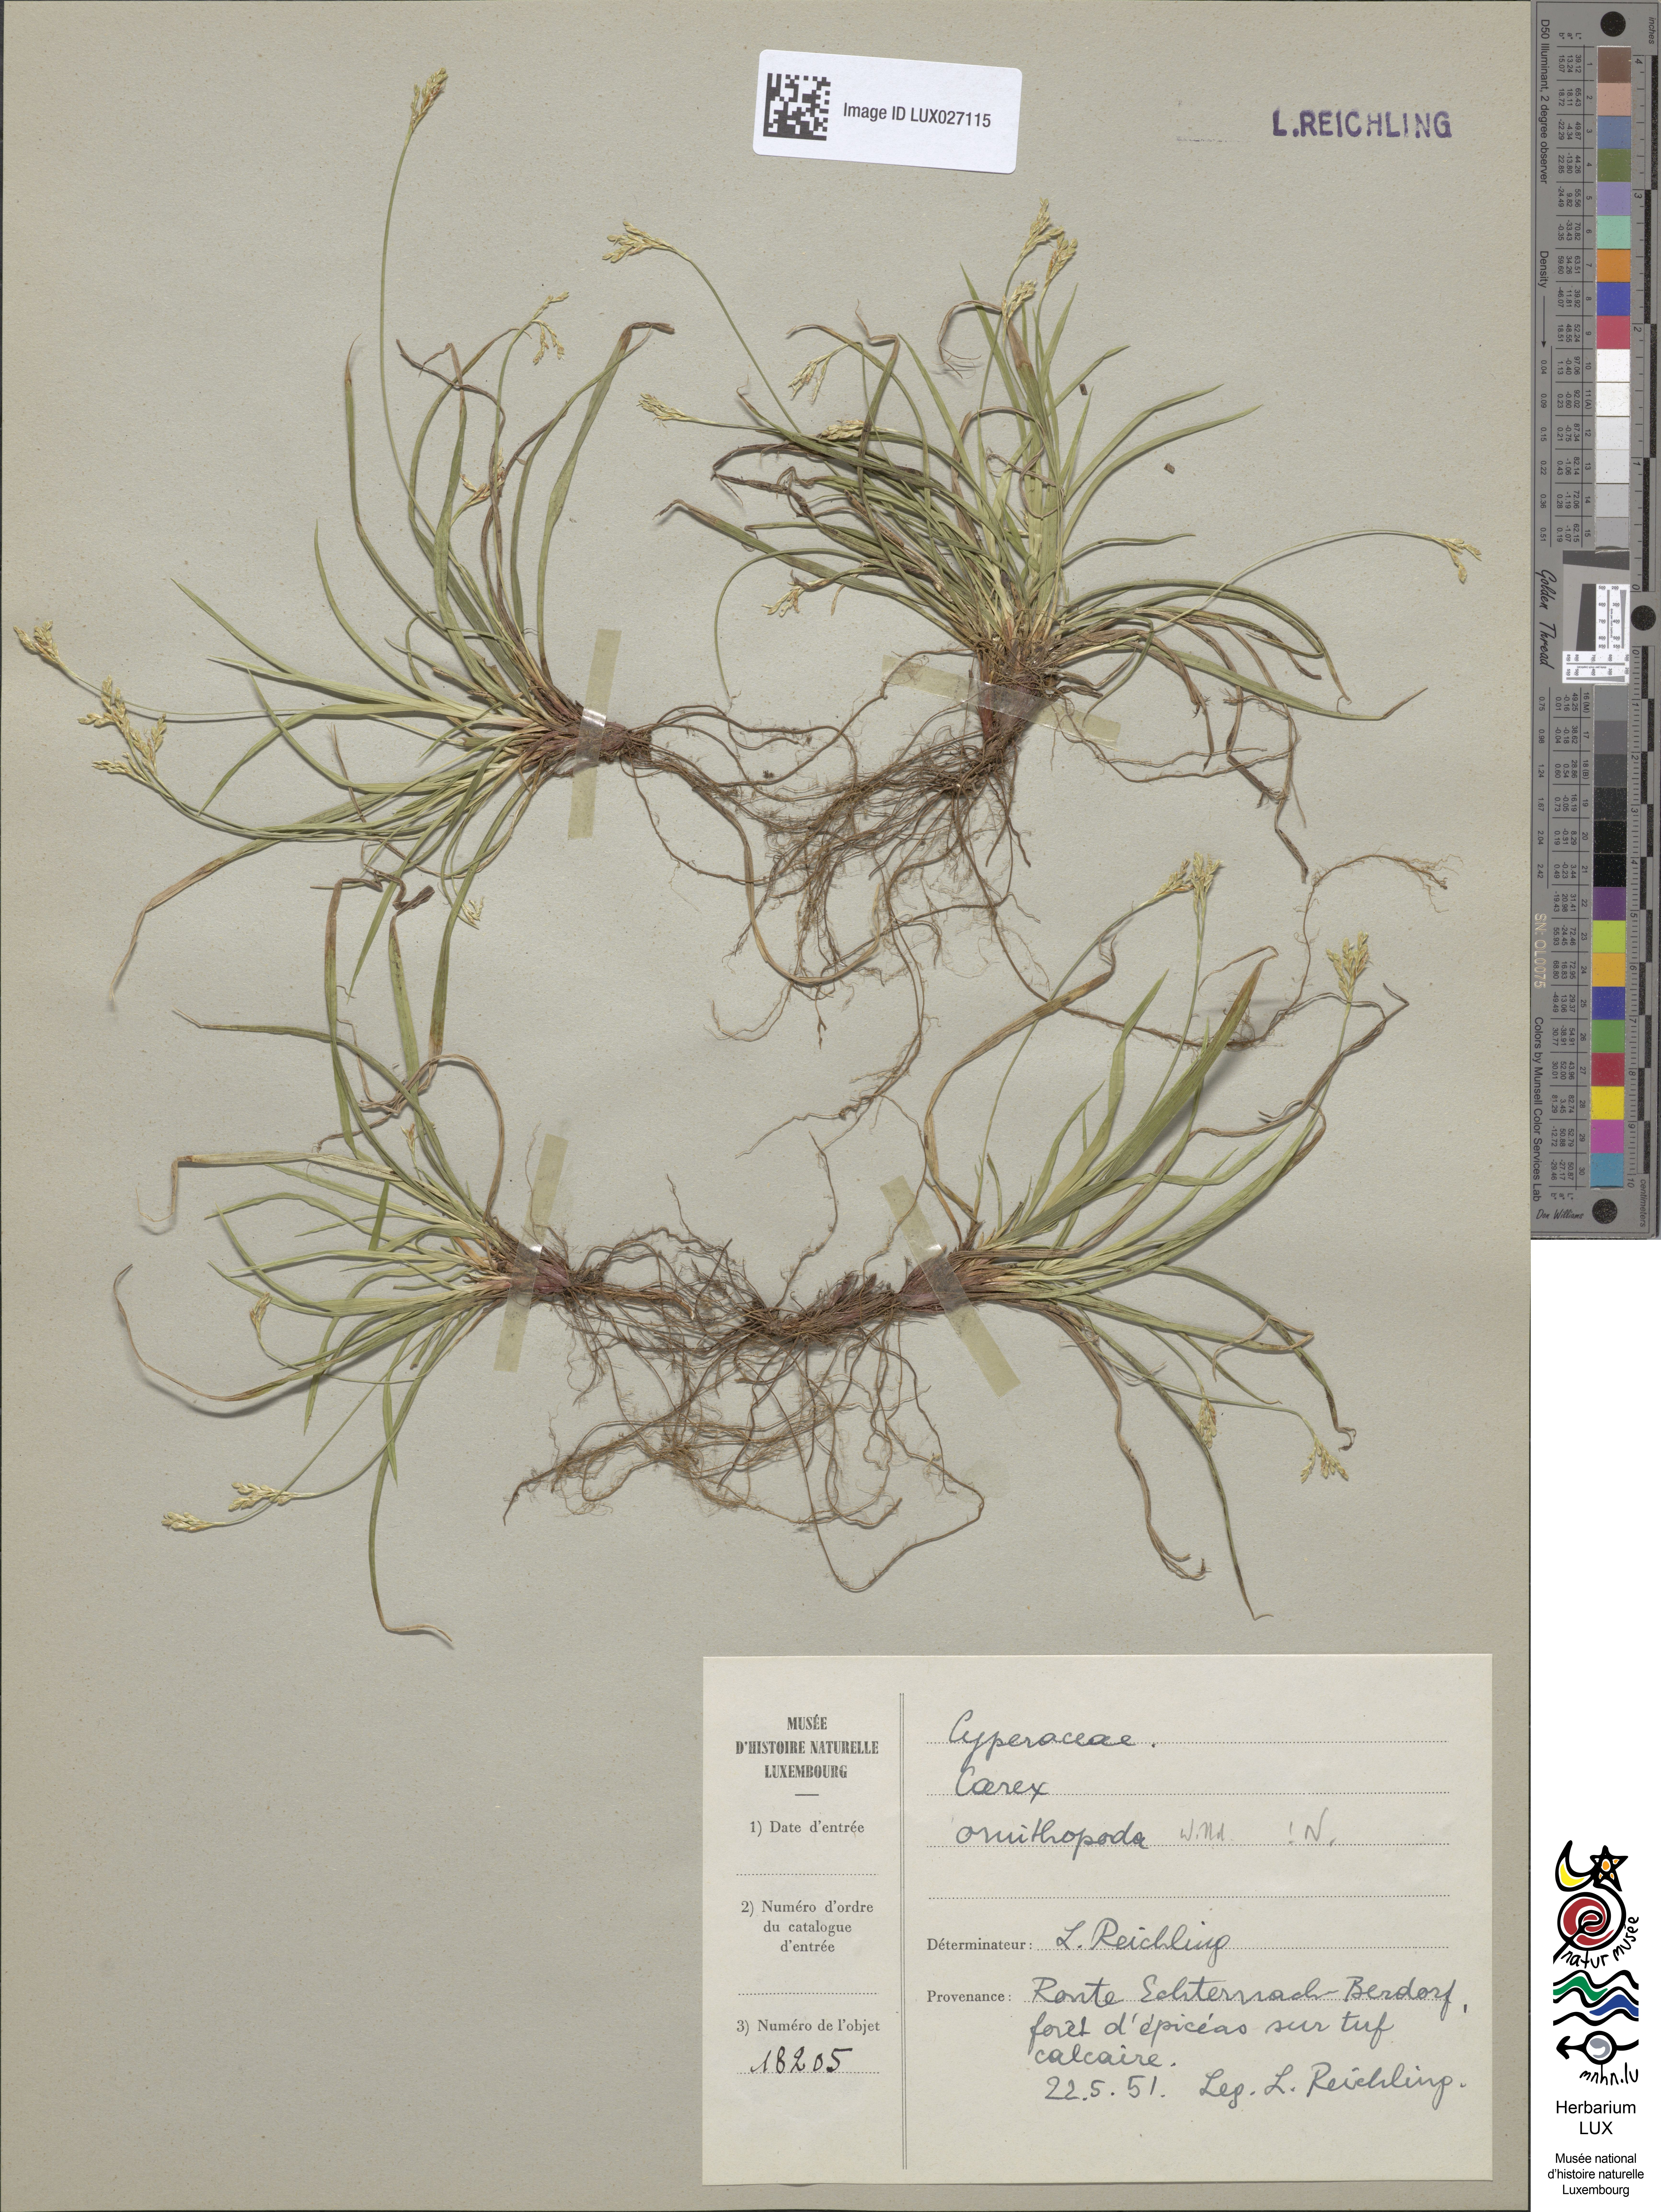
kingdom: Plantae
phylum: Tracheophyta
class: Liliopsida
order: Poales
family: Cyperaceae
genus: Carex
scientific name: Carex ornithopoda
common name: Bird's-foot sedge
